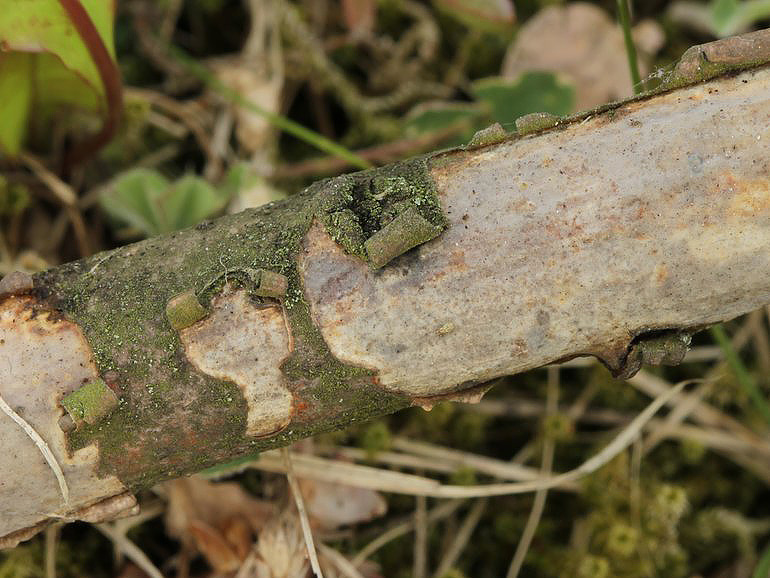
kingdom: Fungi
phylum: Basidiomycota
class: Agaricomycetes
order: Corticiales
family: Vuilleminiaceae
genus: Vuilleminia
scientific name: Vuilleminia comedens
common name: almindelig barksprænger
